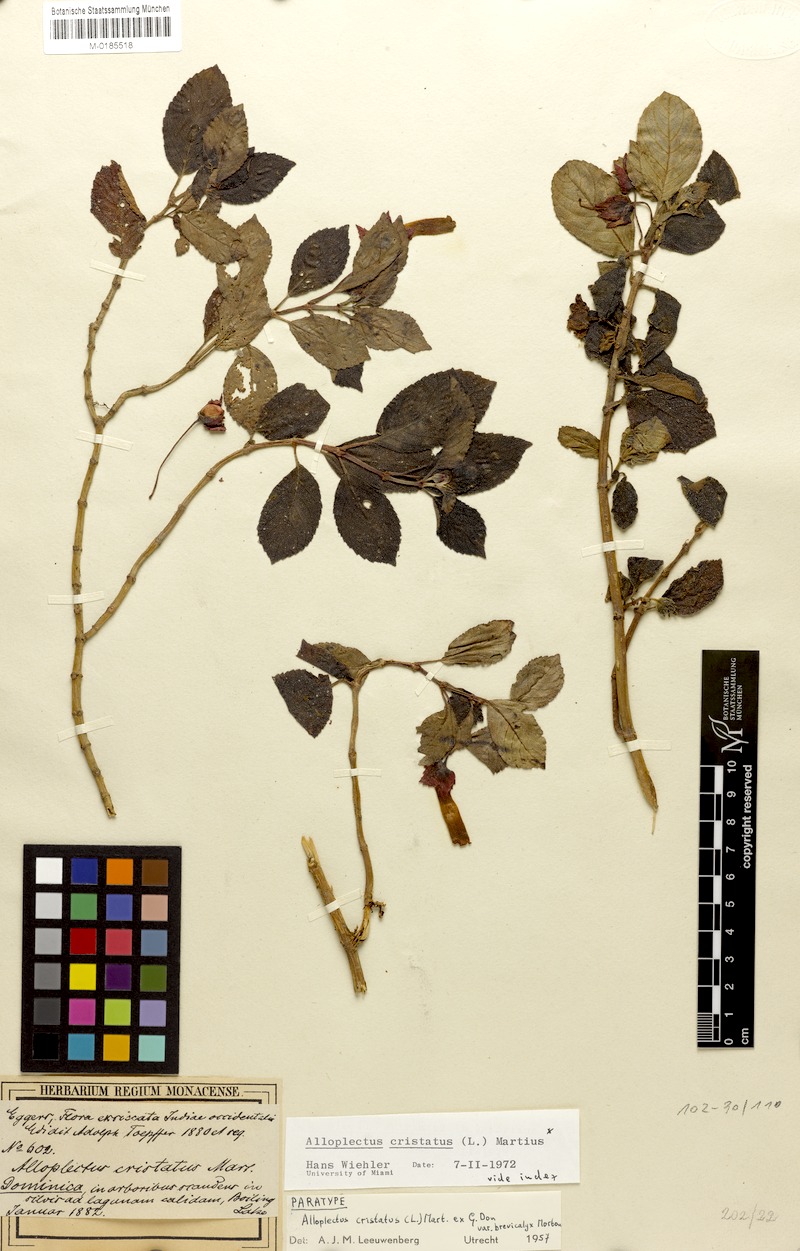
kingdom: Plantae
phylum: Tracheophyta
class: Magnoliopsida
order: Lamiales
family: Gesneriaceae
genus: Crantzia
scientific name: Crantzia cristata
